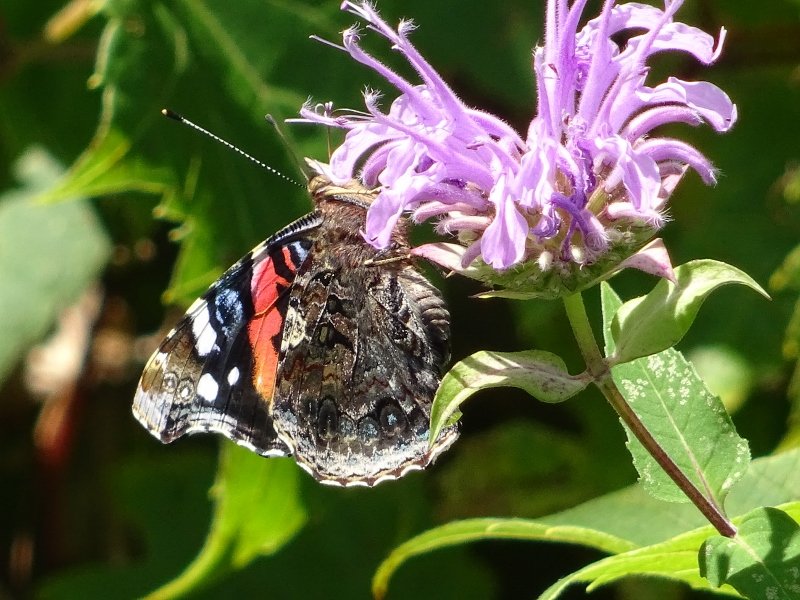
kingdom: Animalia
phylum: Arthropoda
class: Insecta
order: Lepidoptera
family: Nymphalidae
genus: Vanessa
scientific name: Vanessa atalanta
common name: Red Admiral
